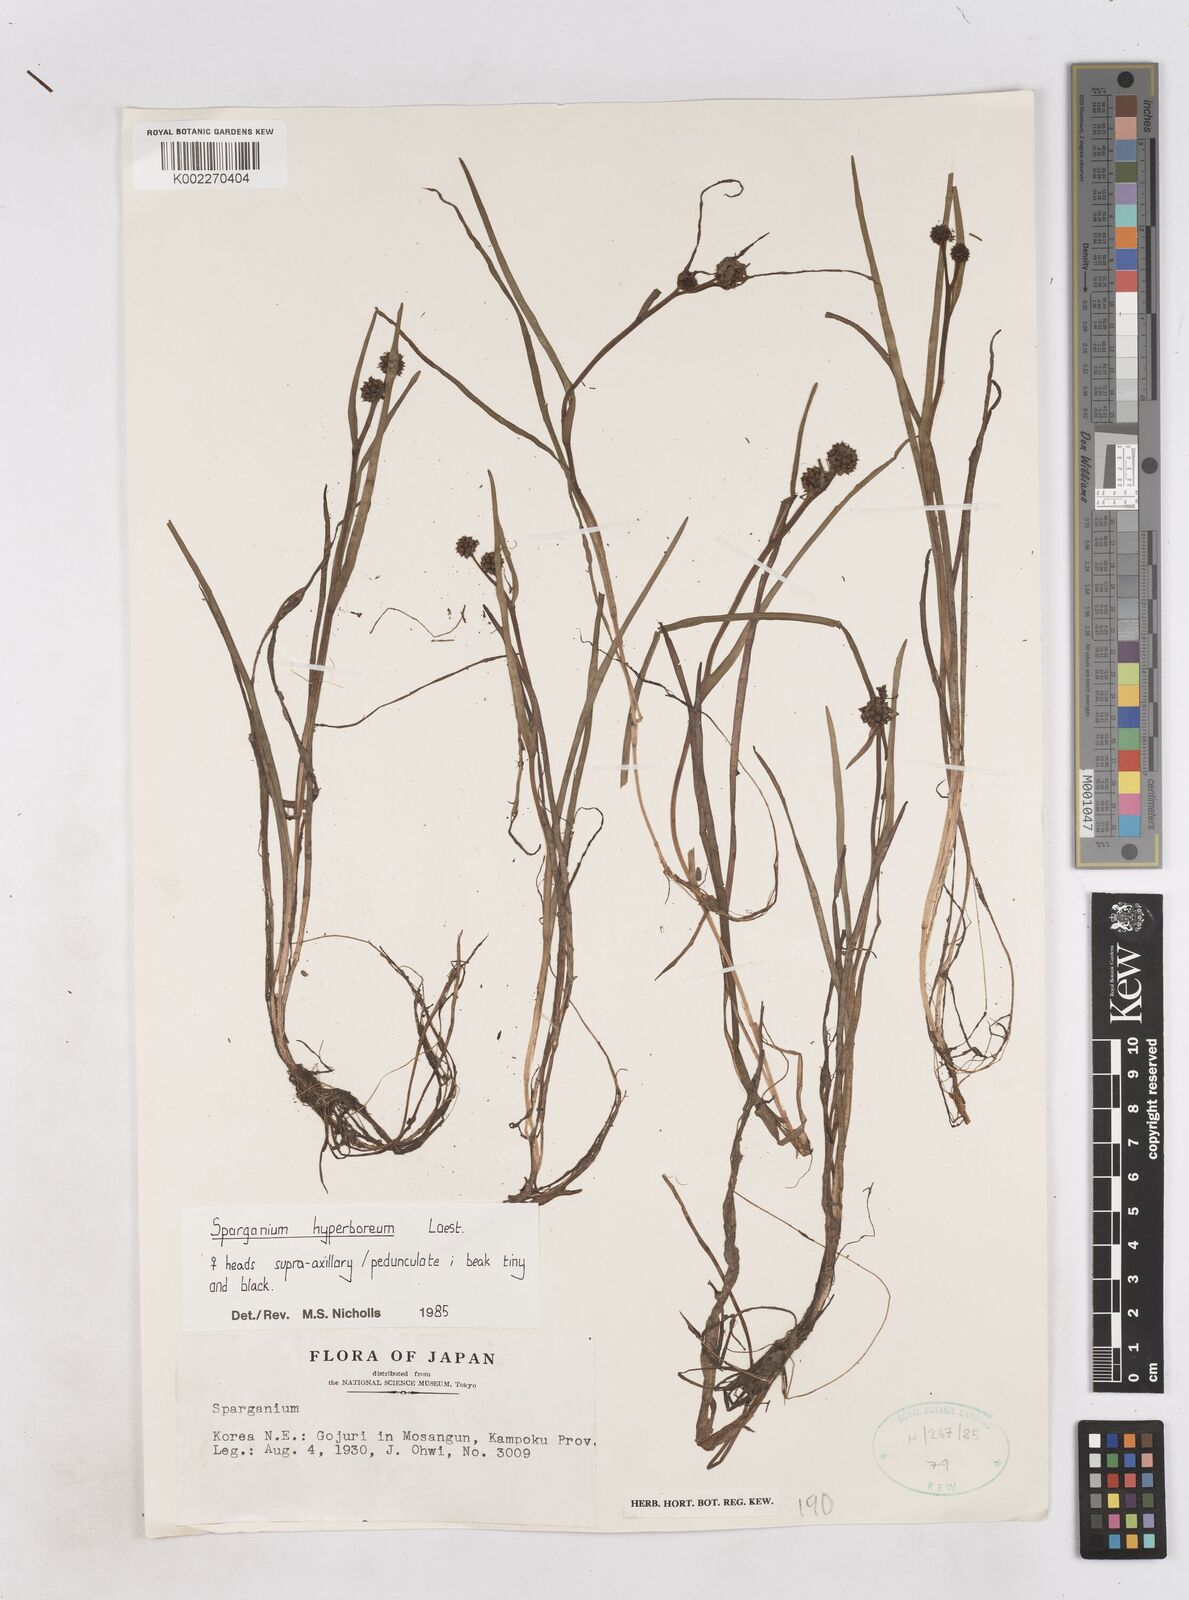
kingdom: Plantae
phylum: Tracheophyta
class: Liliopsida
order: Poales
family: Typhaceae
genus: Sparganium
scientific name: Sparganium hyperboreum
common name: Arctic burreed
